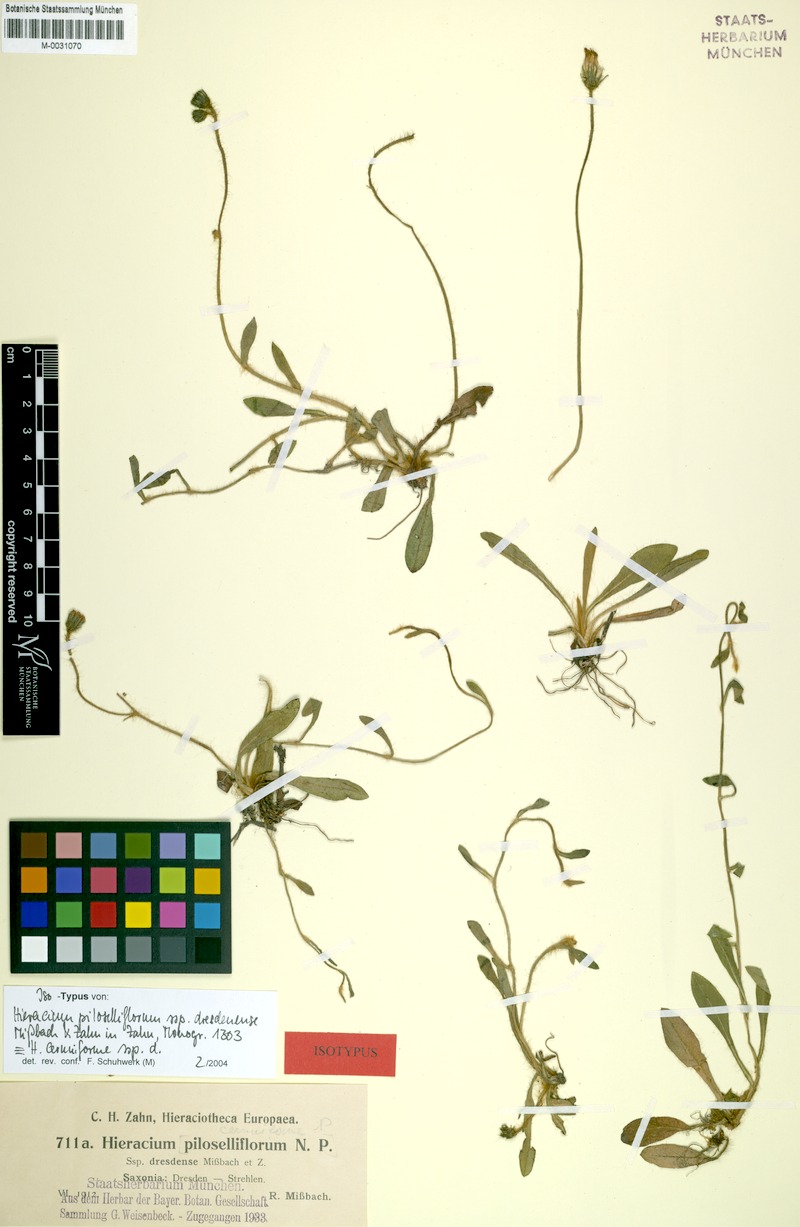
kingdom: Plantae
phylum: Tracheophyta
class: Magnoliopsida
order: Asterales
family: Asteraceae
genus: Pilosella
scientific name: Pilosella piloselliflora
